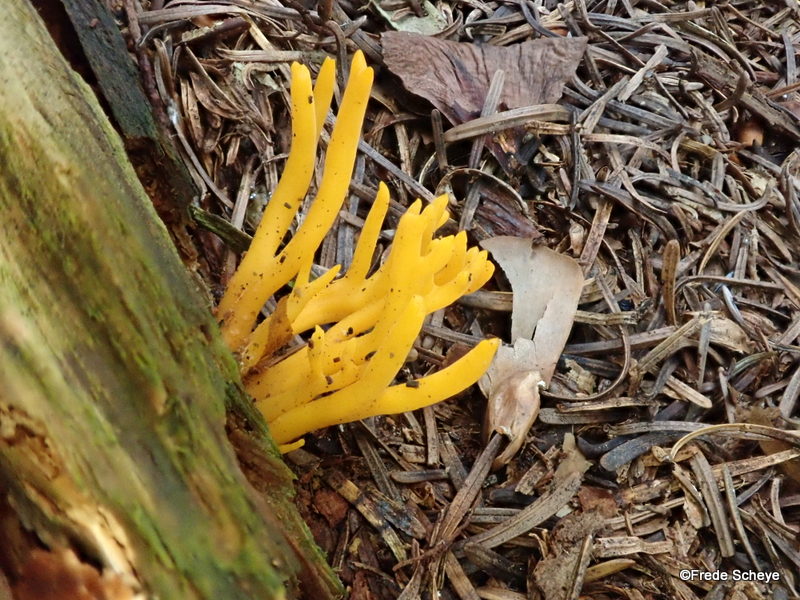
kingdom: Fungi
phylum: Basidiomycota
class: Dacrymycetes
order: Dacrymycetales
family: Dacrymycetaceae
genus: Calocera
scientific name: Calocera viscosa
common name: almindelig guldgaffel
